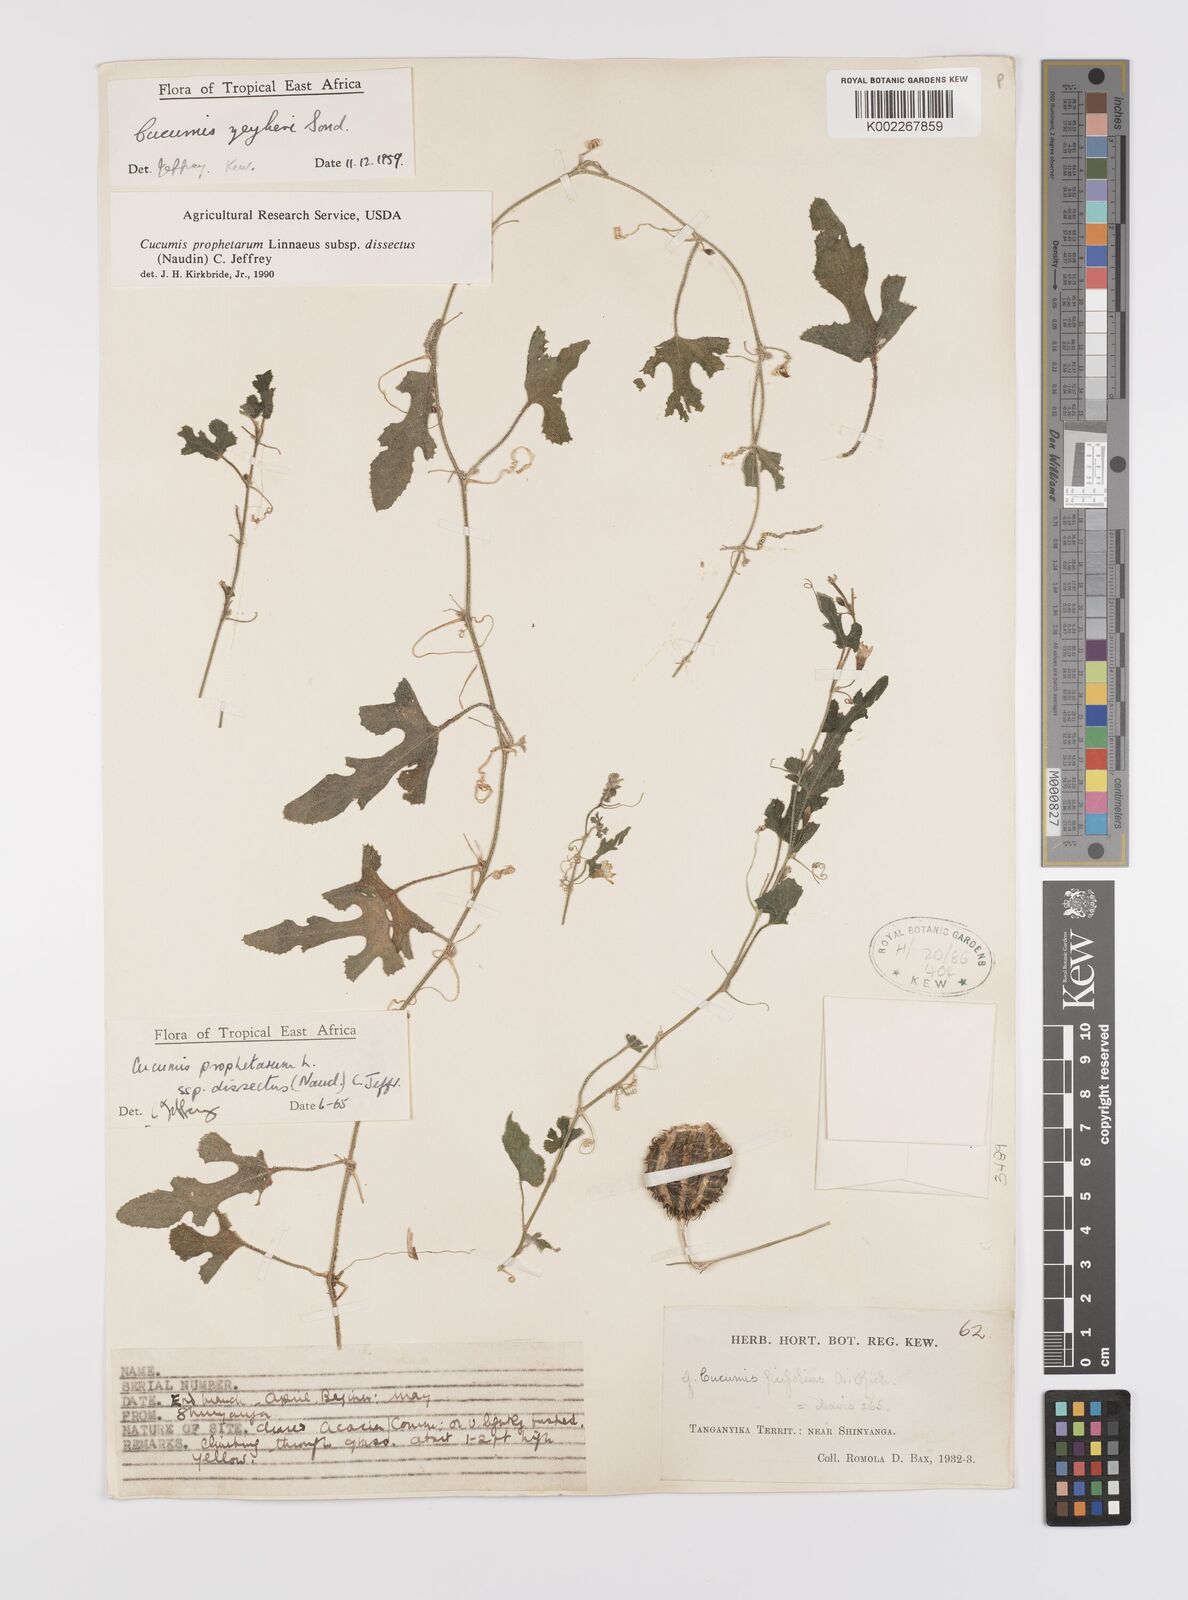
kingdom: Plantae
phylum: Tracheophyta
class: Magnoliopsida
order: Cucurbitales
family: Cucurbitaceae
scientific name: Cucurbitaceae
